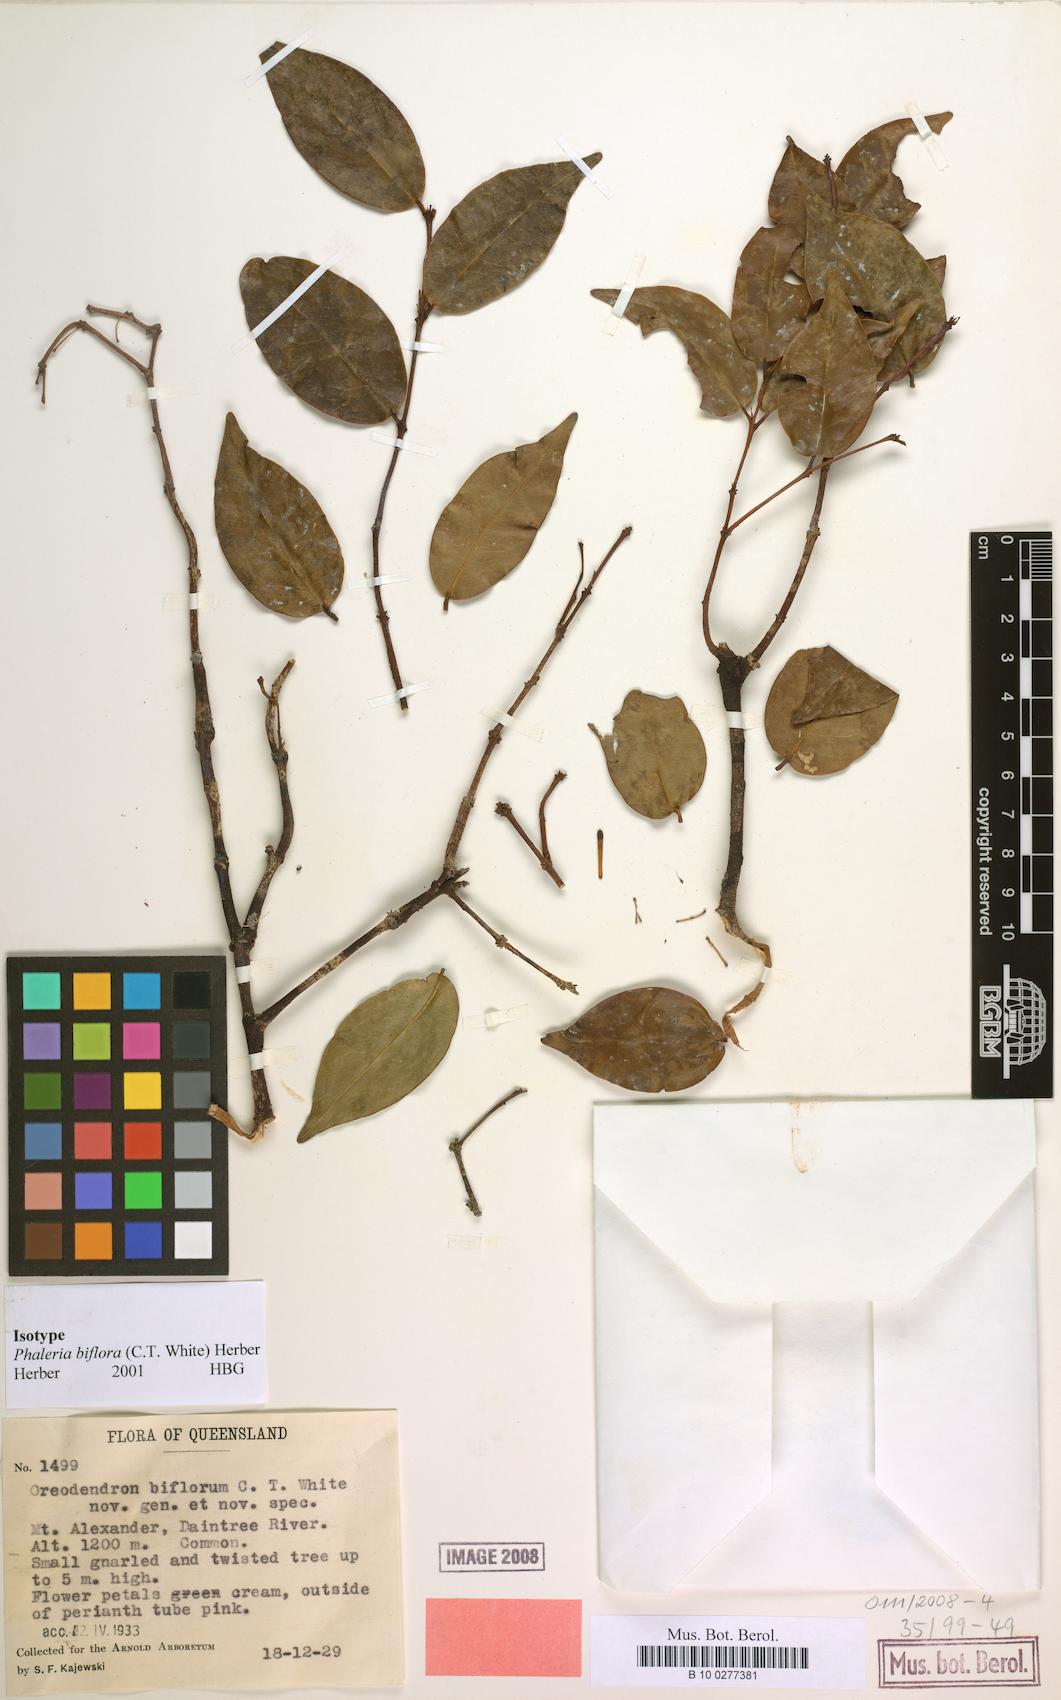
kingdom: Plantae
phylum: Tracheophyta
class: Magnoliopsida
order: Malvales
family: Thymelaeaceae
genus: Phaleria
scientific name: Phaleria biflora
